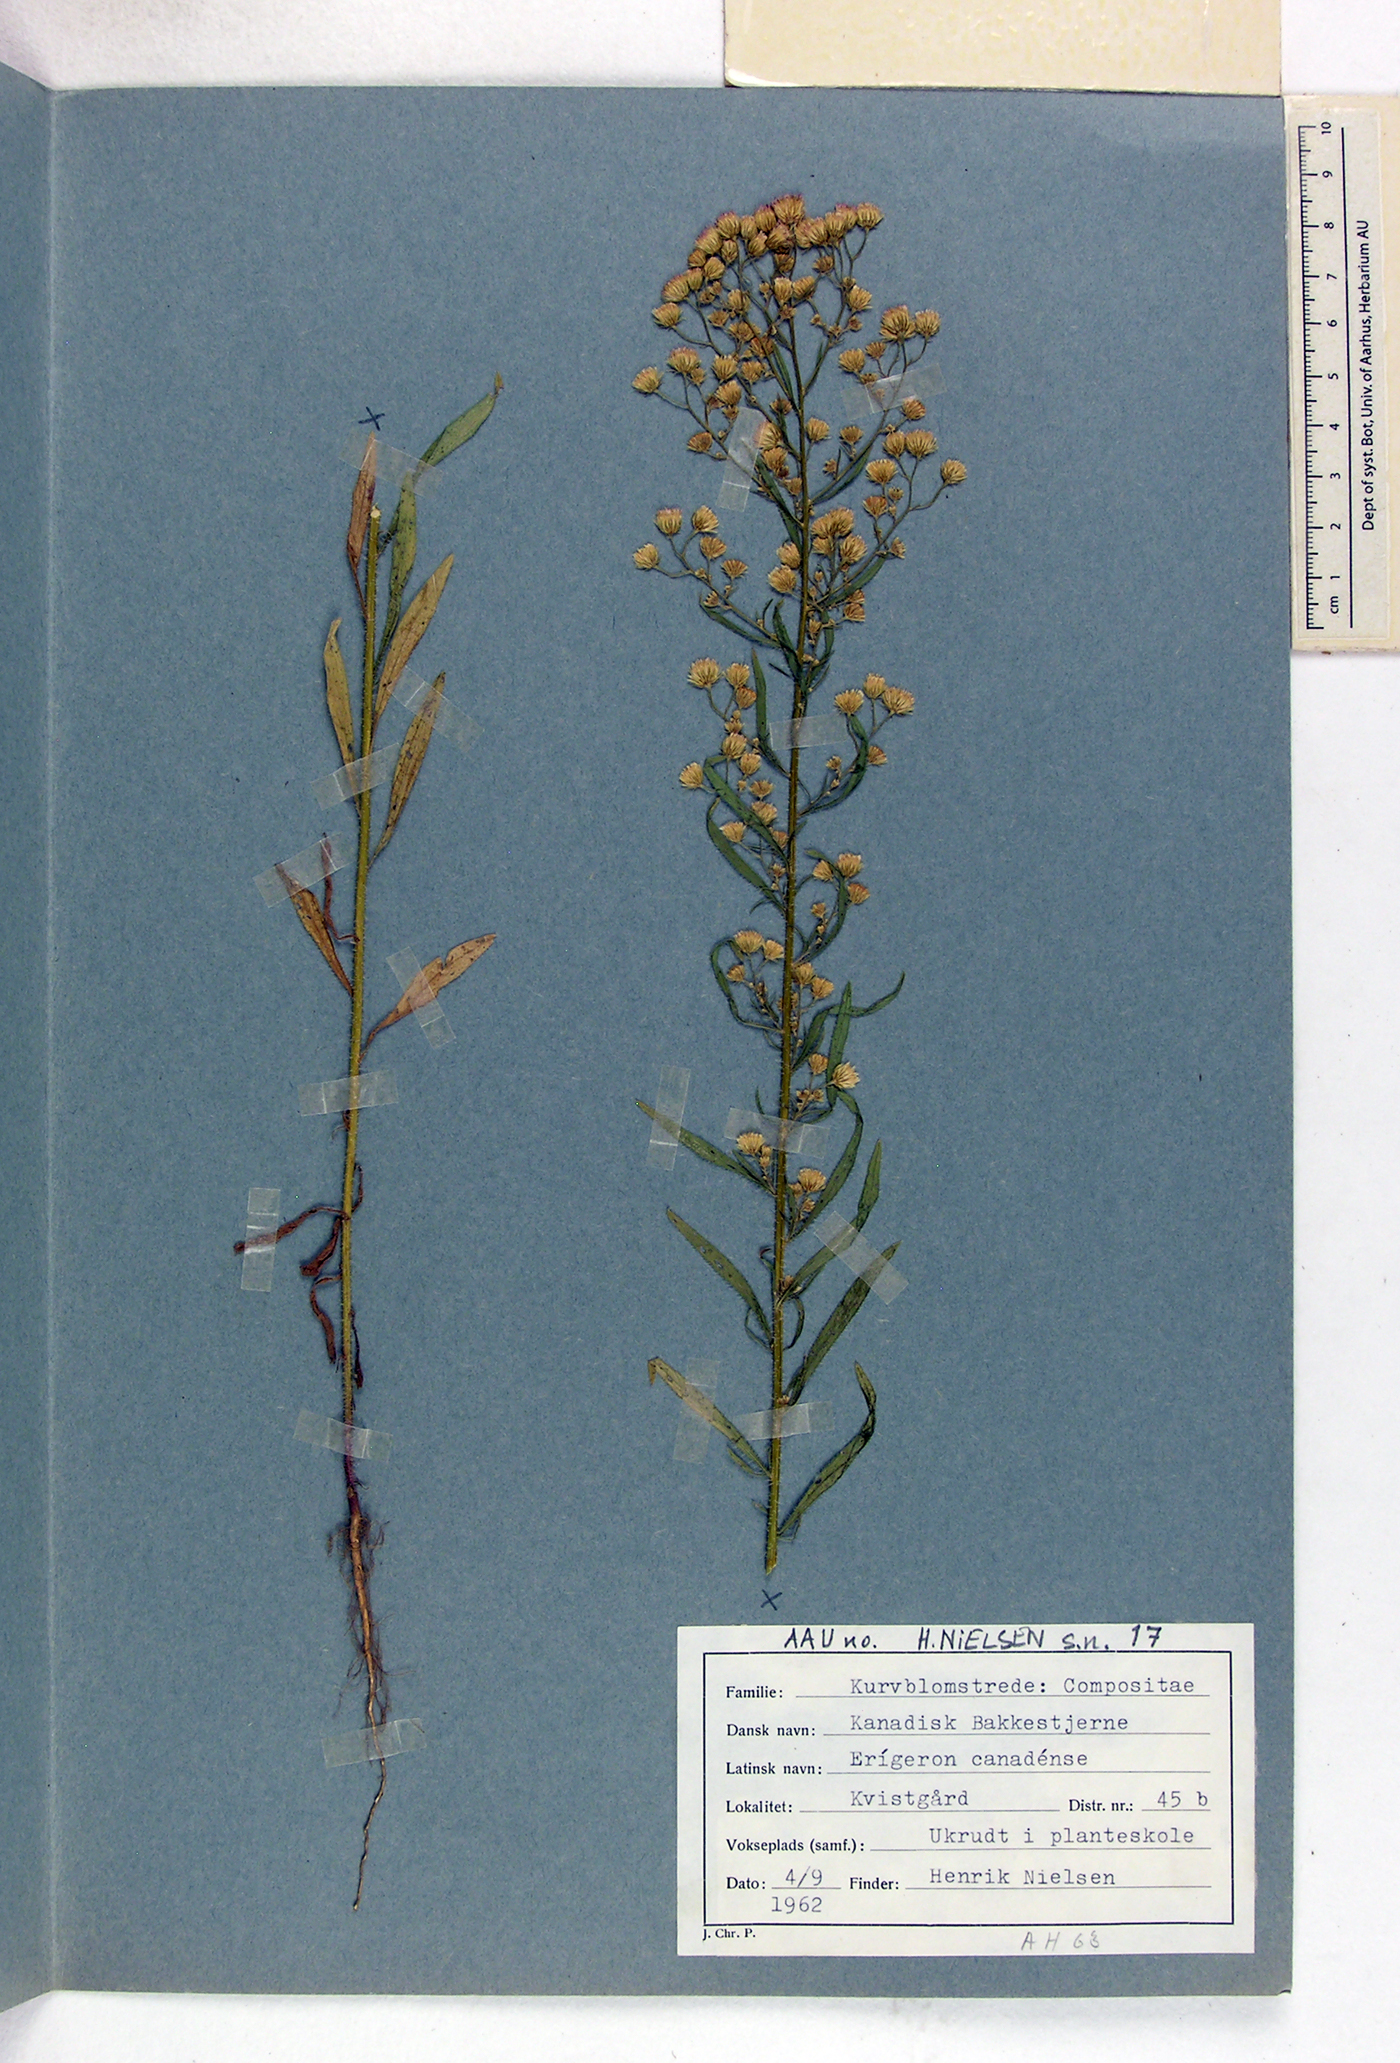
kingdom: Plantae
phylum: Tracheophyta
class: Magnoliopsida
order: Asterales
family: Asteraceae
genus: Erigeron
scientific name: Erigeron canadensis
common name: Canadian fleabane
